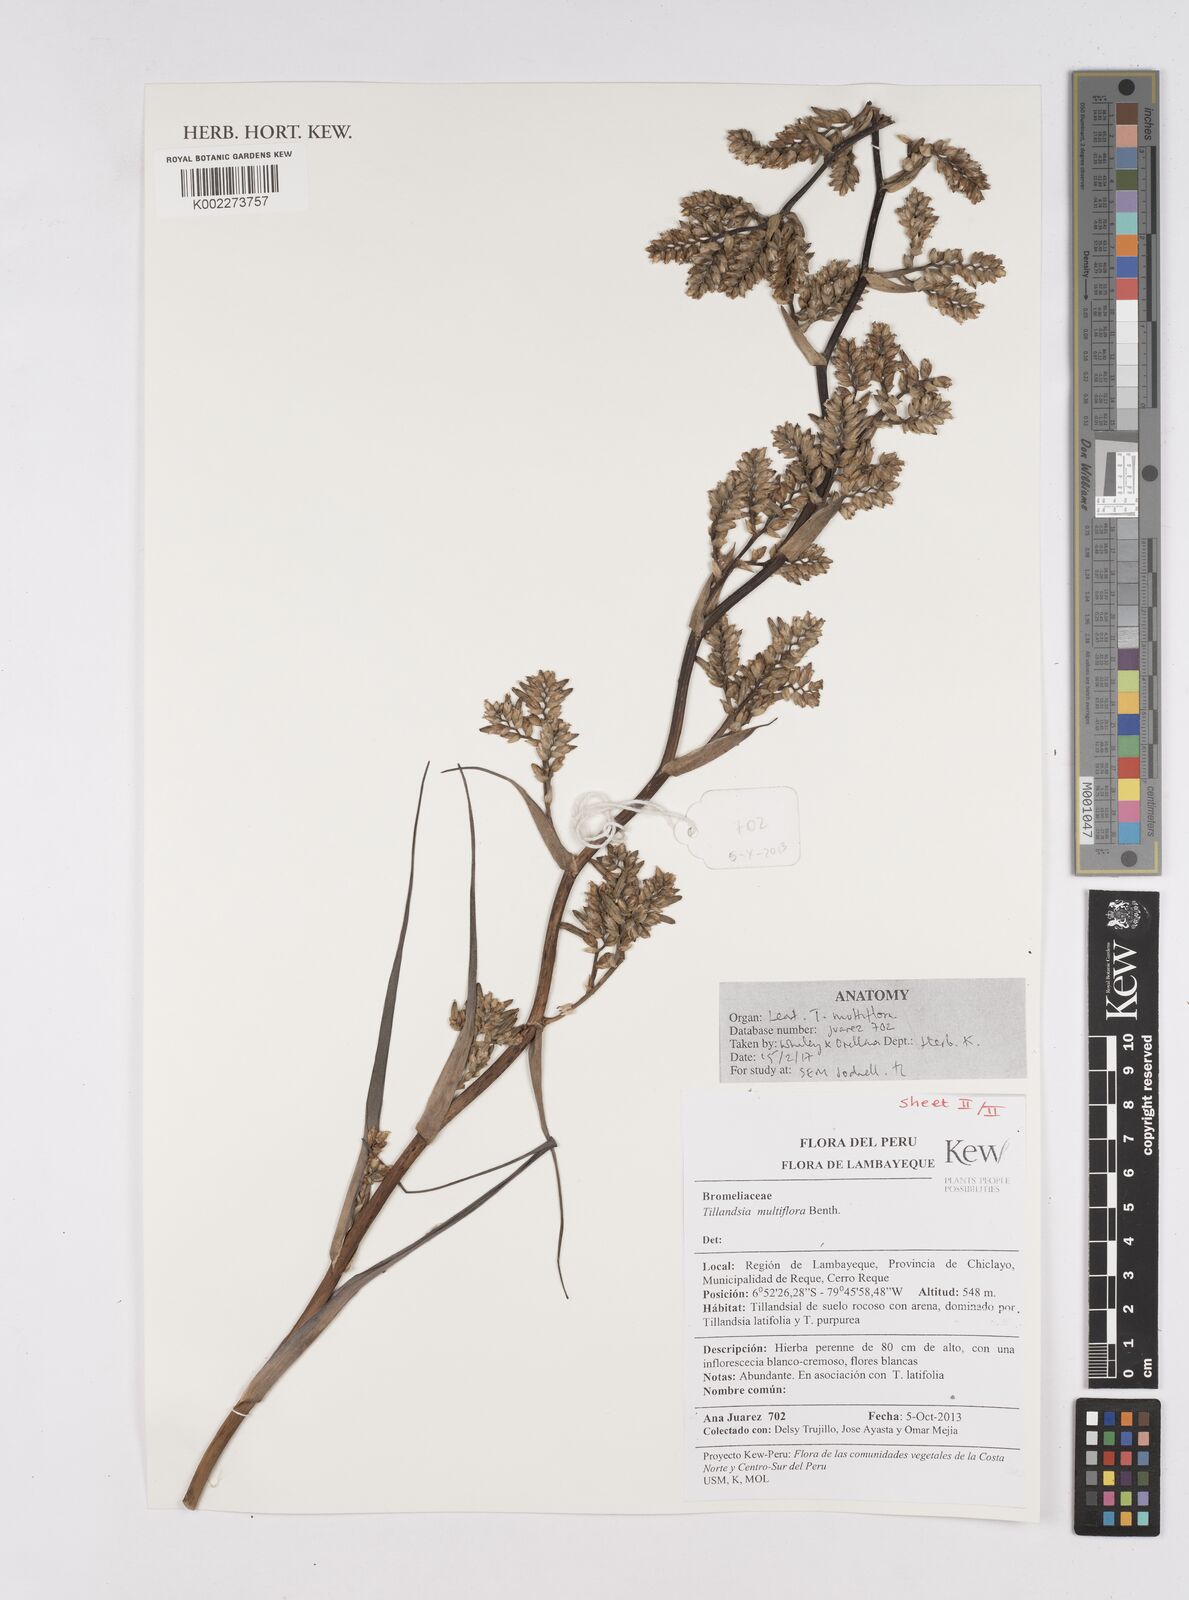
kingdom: Plantae
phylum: Tracheophyta
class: Liliopsida
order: Poales
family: Bromeliaceae
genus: Racinaea
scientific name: Racinaea multiflora
